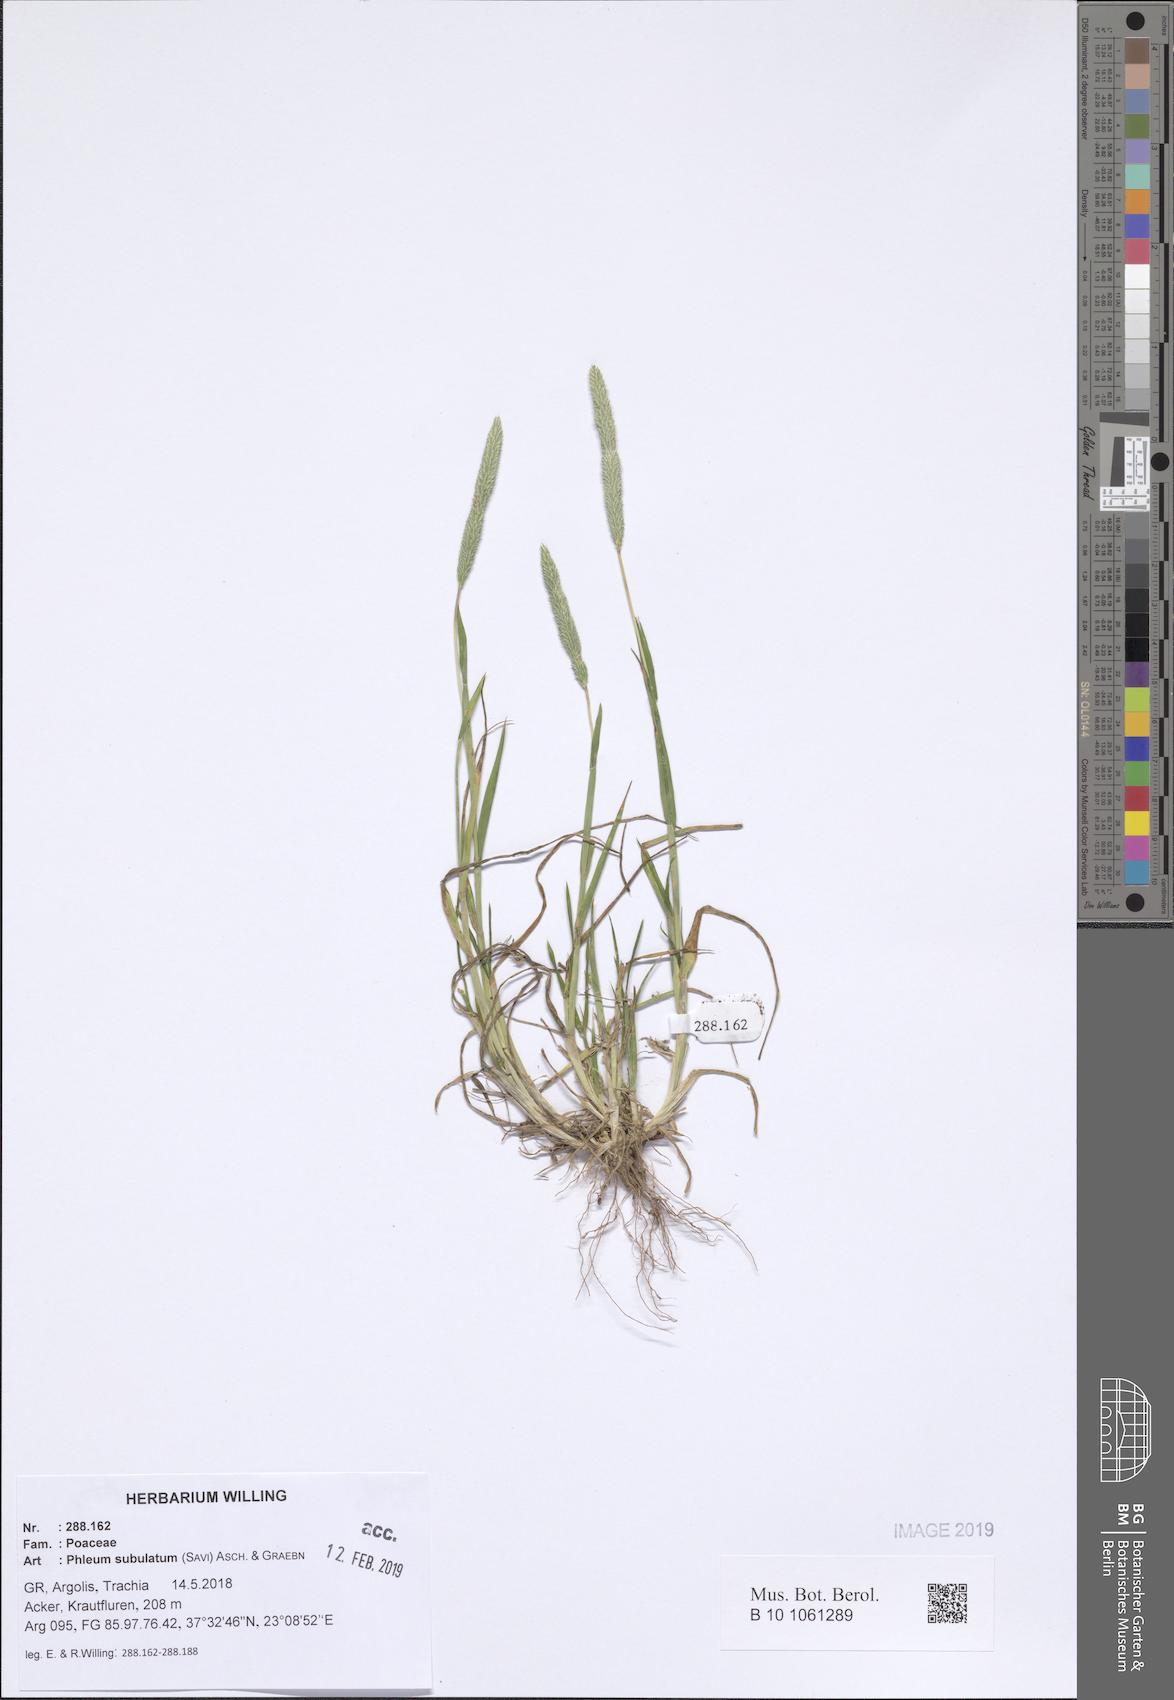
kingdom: Plantae
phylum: Tracheophyta
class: Liliopsida
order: Poales
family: Poaceae
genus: Phleum
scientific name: Phleum subulatum
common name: Italian timothy
